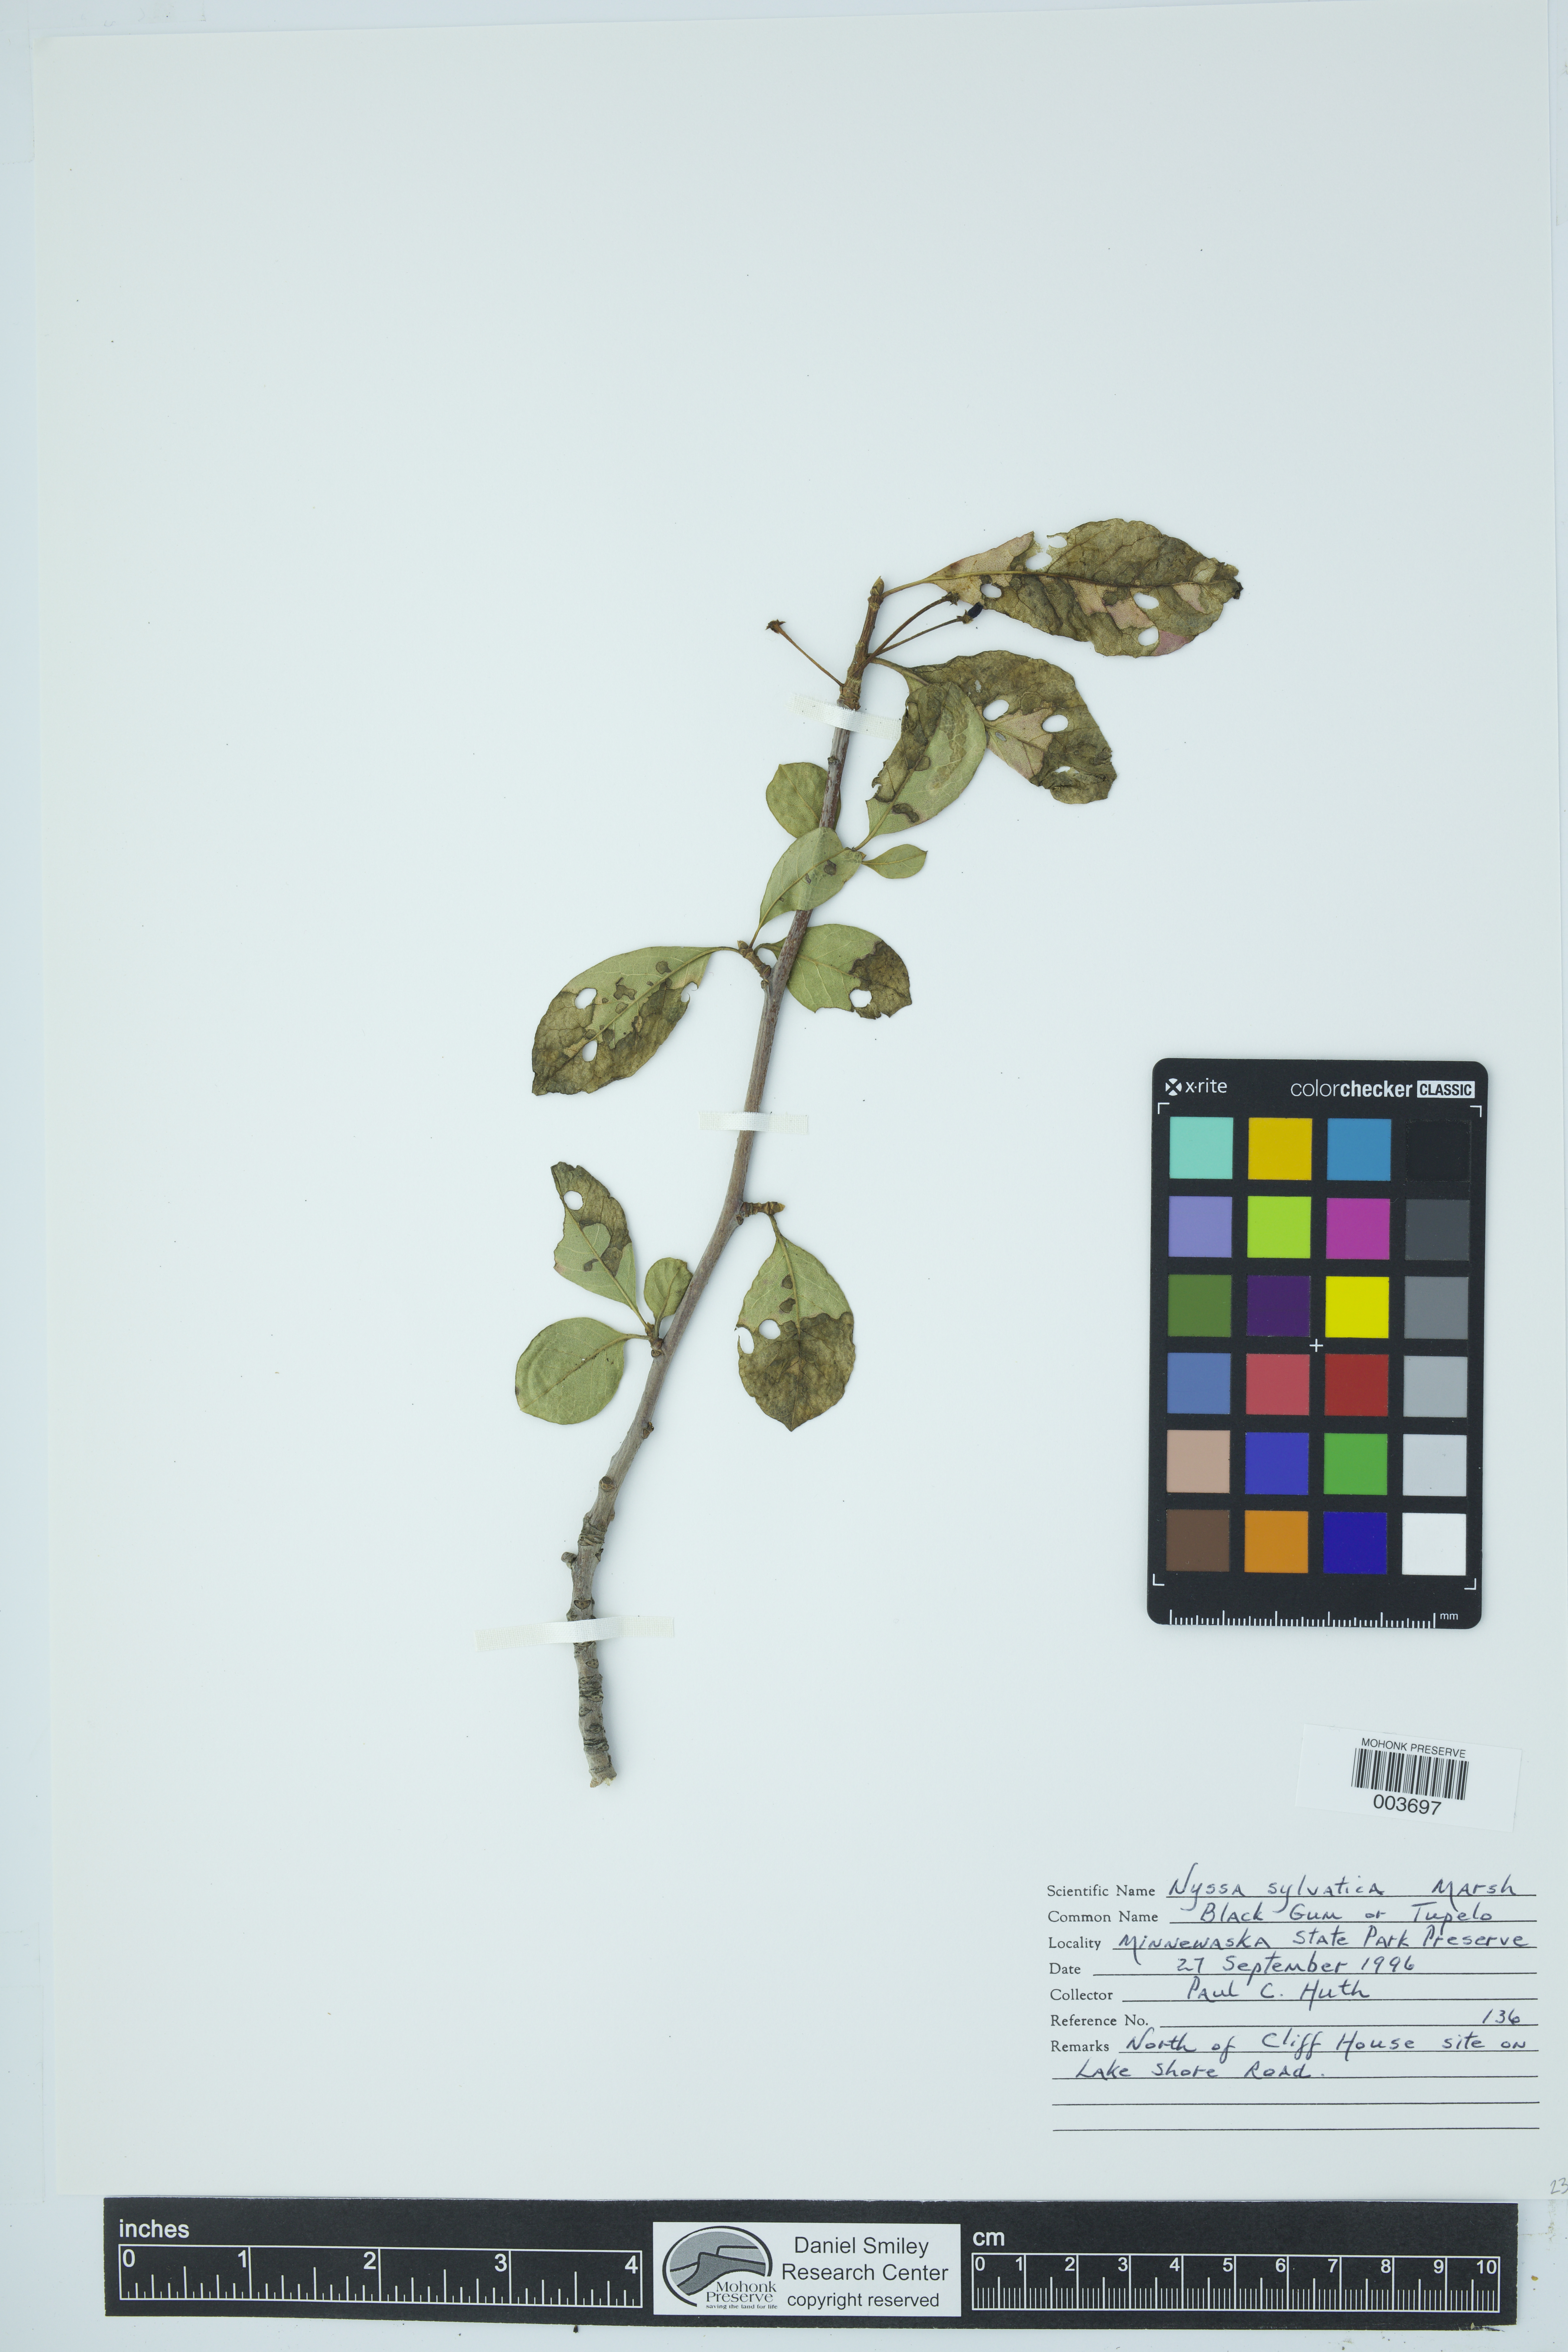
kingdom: Plantae
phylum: Tracheophyta
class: Magnoliopsida
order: Cornales
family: Nyssaceae
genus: Nyssa
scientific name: Nyssa sylvatica
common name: Black tupelo
